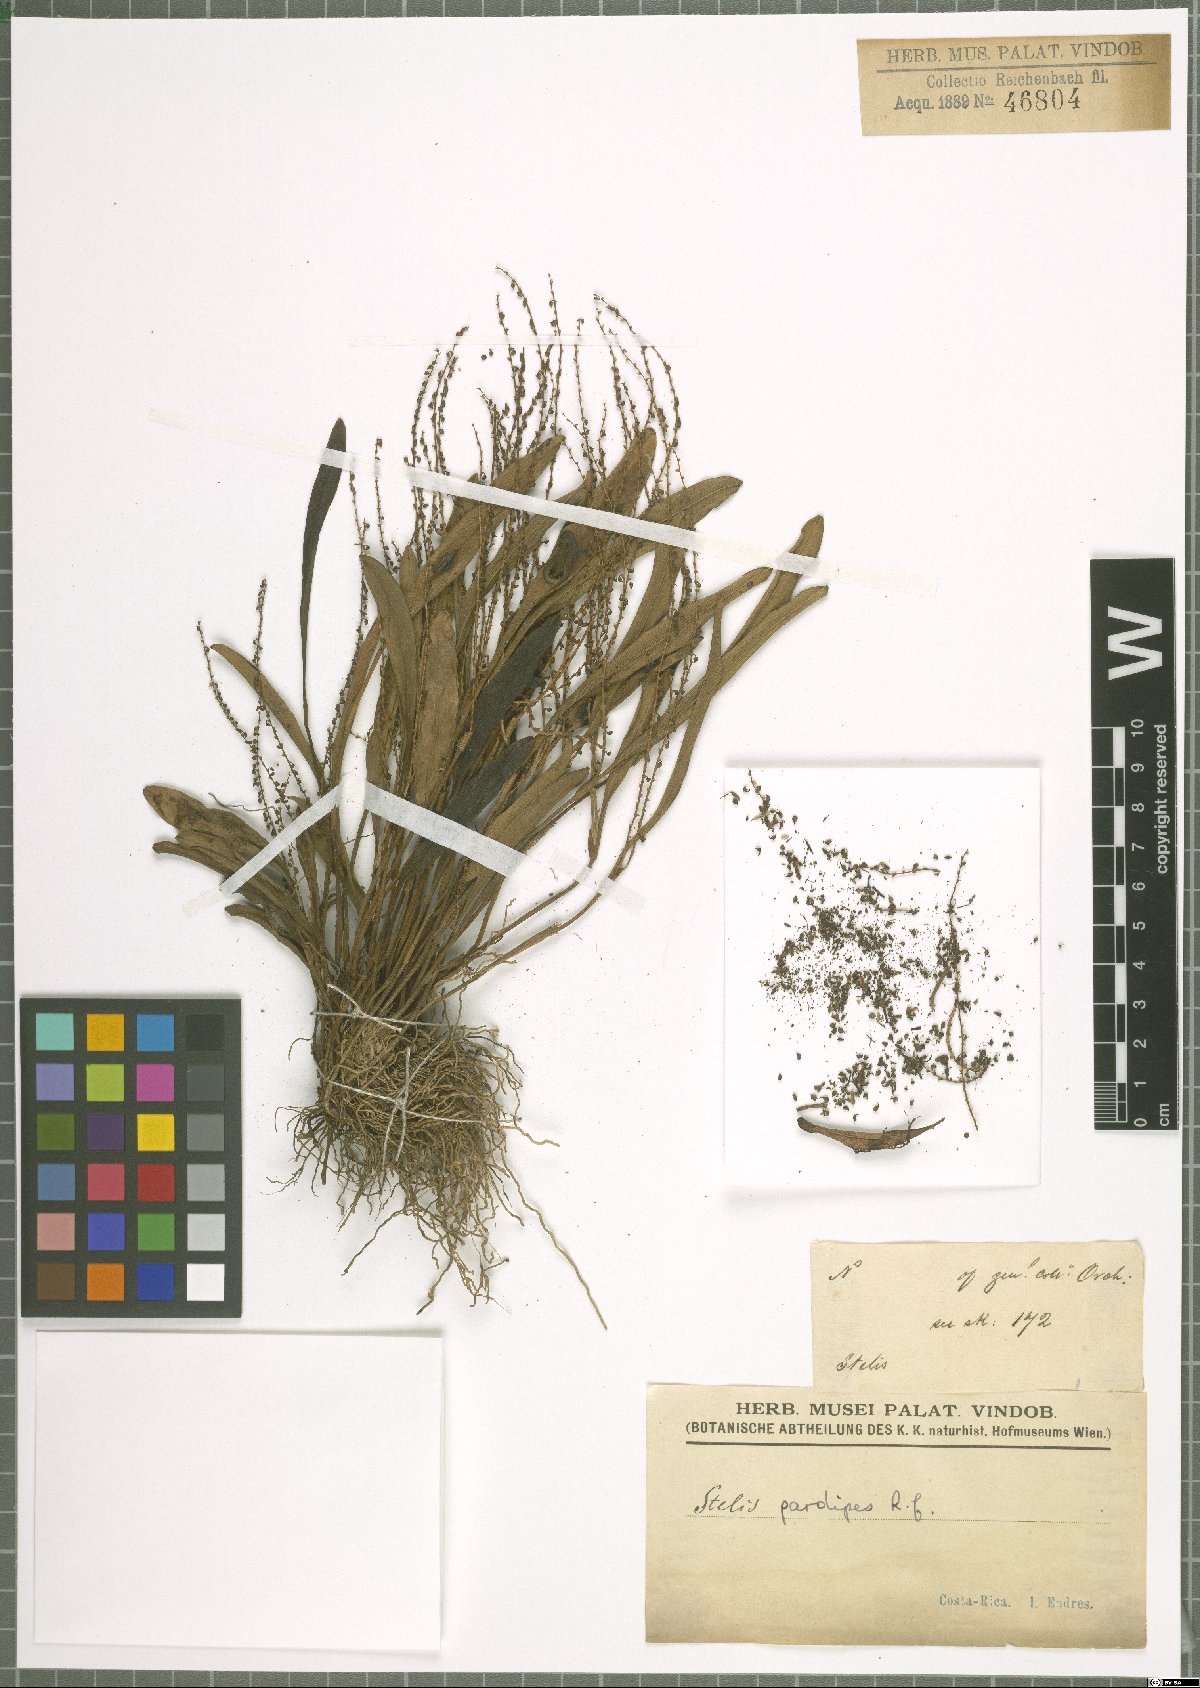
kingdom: Plantae
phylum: Tracheophyta
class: Liliopsida
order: Asparagales
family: Orchidaceae
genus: Stelis
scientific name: Stelis pardipes
